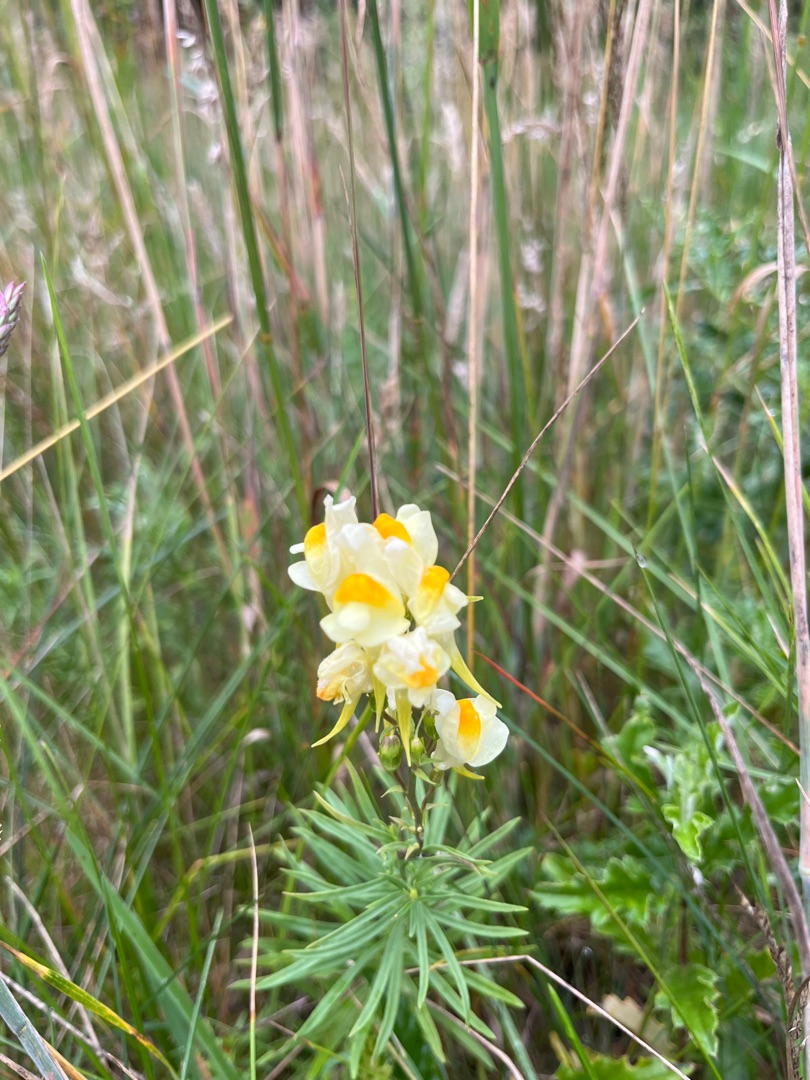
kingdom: Plantae
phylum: Tracheophyta
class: Magnoliopsida
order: Lamiales
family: Plantaginaceae
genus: Linaria
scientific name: Linaria vulgaris
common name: Almindelig torskemund
